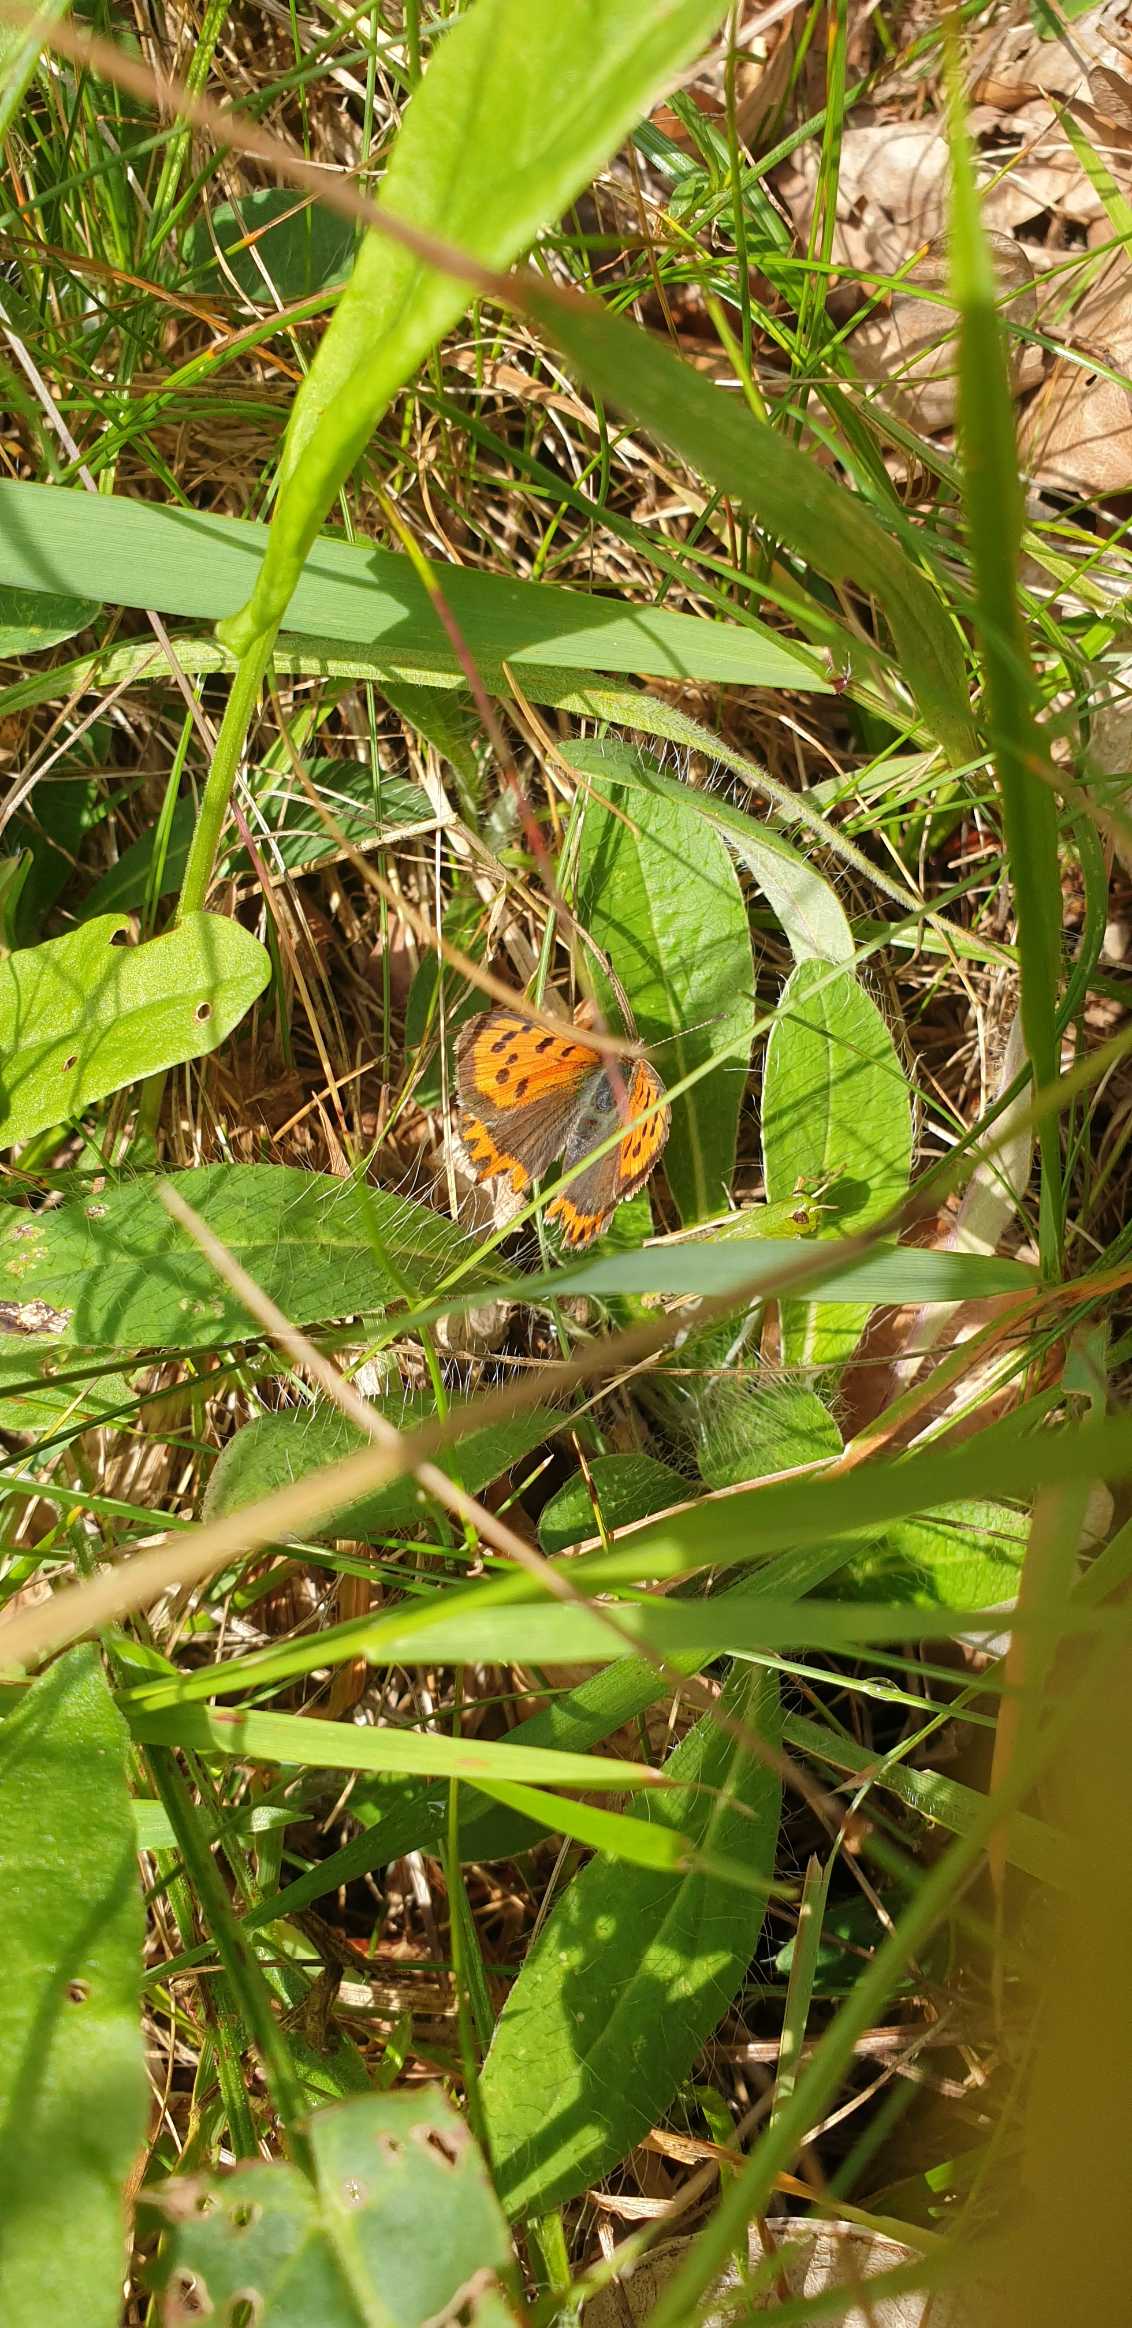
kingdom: Animalia
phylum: Arthropoda
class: Insecta
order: Lepidoptera
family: Lycaenidae
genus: Lycaena
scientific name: Lycaena phlaeas
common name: Lille ildfugl
